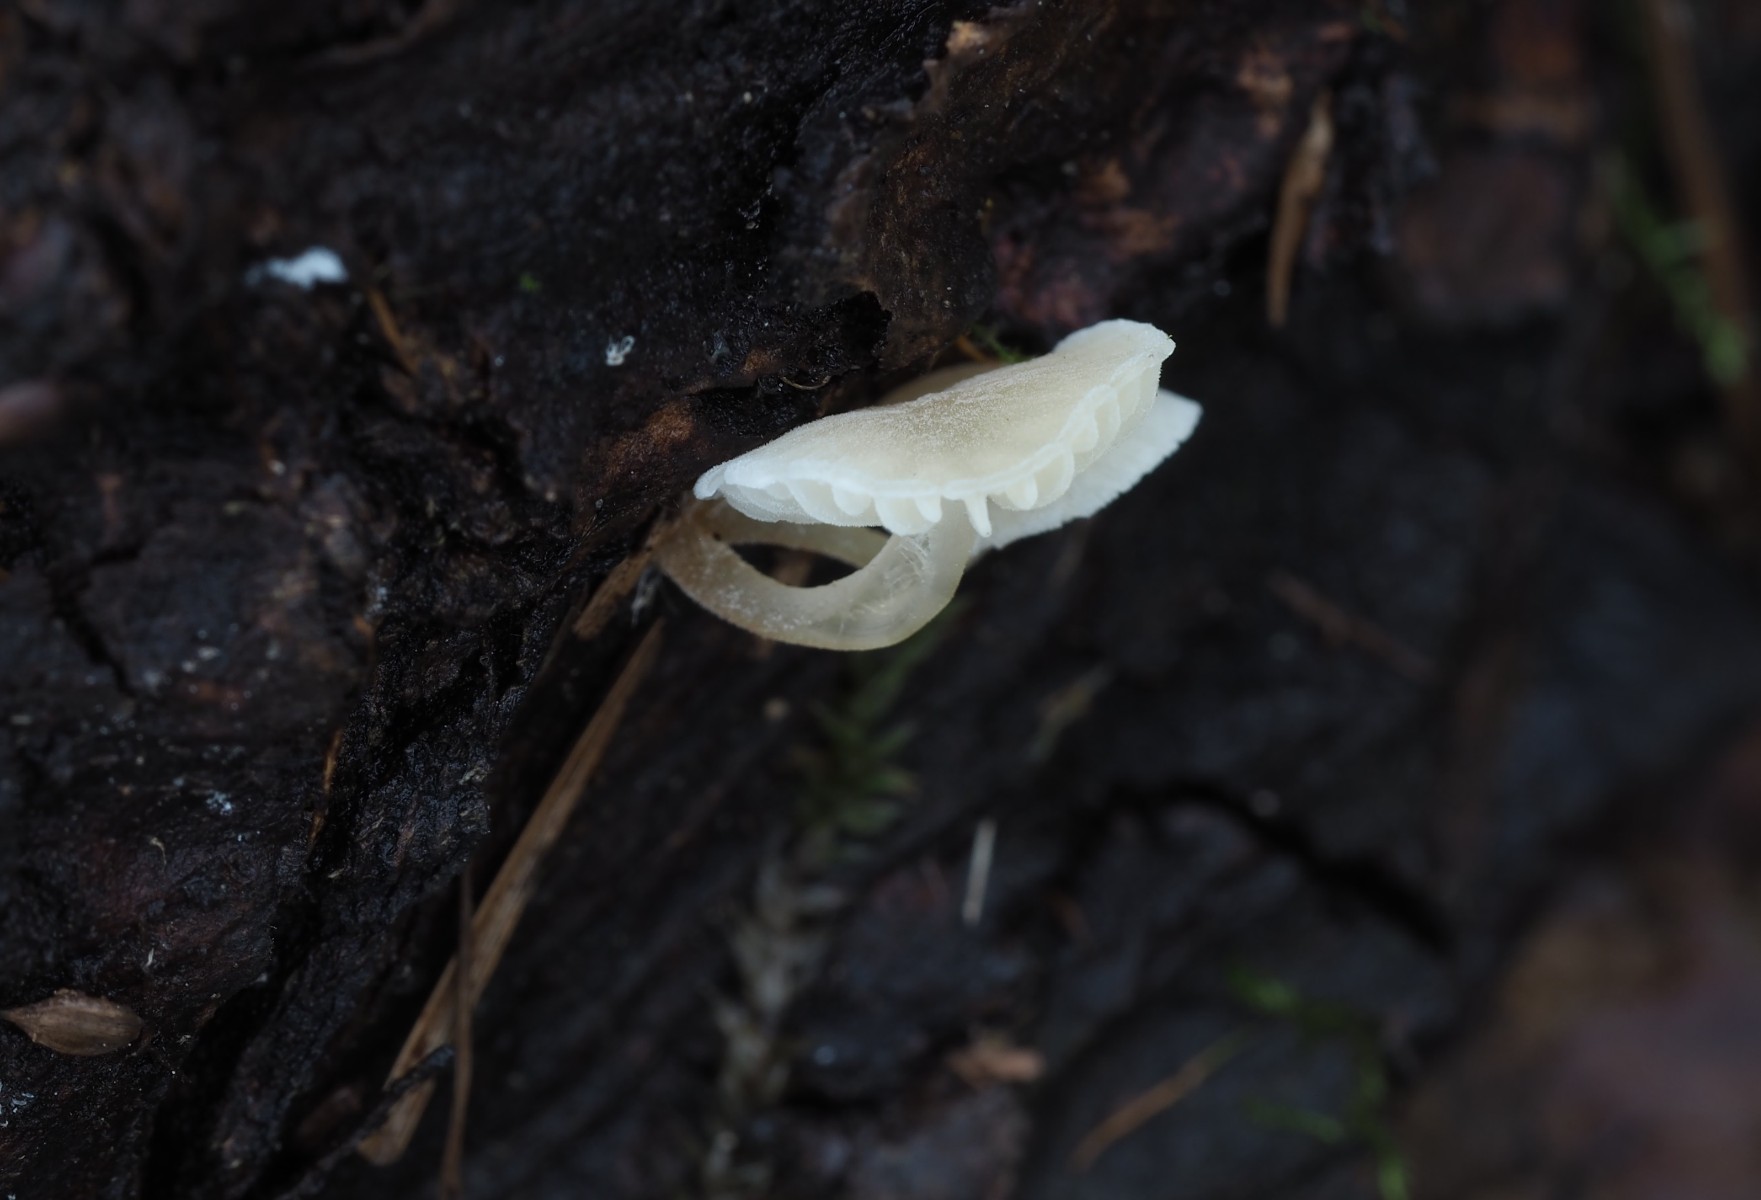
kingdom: Fungi
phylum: Basidiomycota
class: Agaricomycetes
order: Agaricales
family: Porotheleaceae
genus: Phloeomana
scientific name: Phloeomana hiemalis
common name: sen huesvamp
